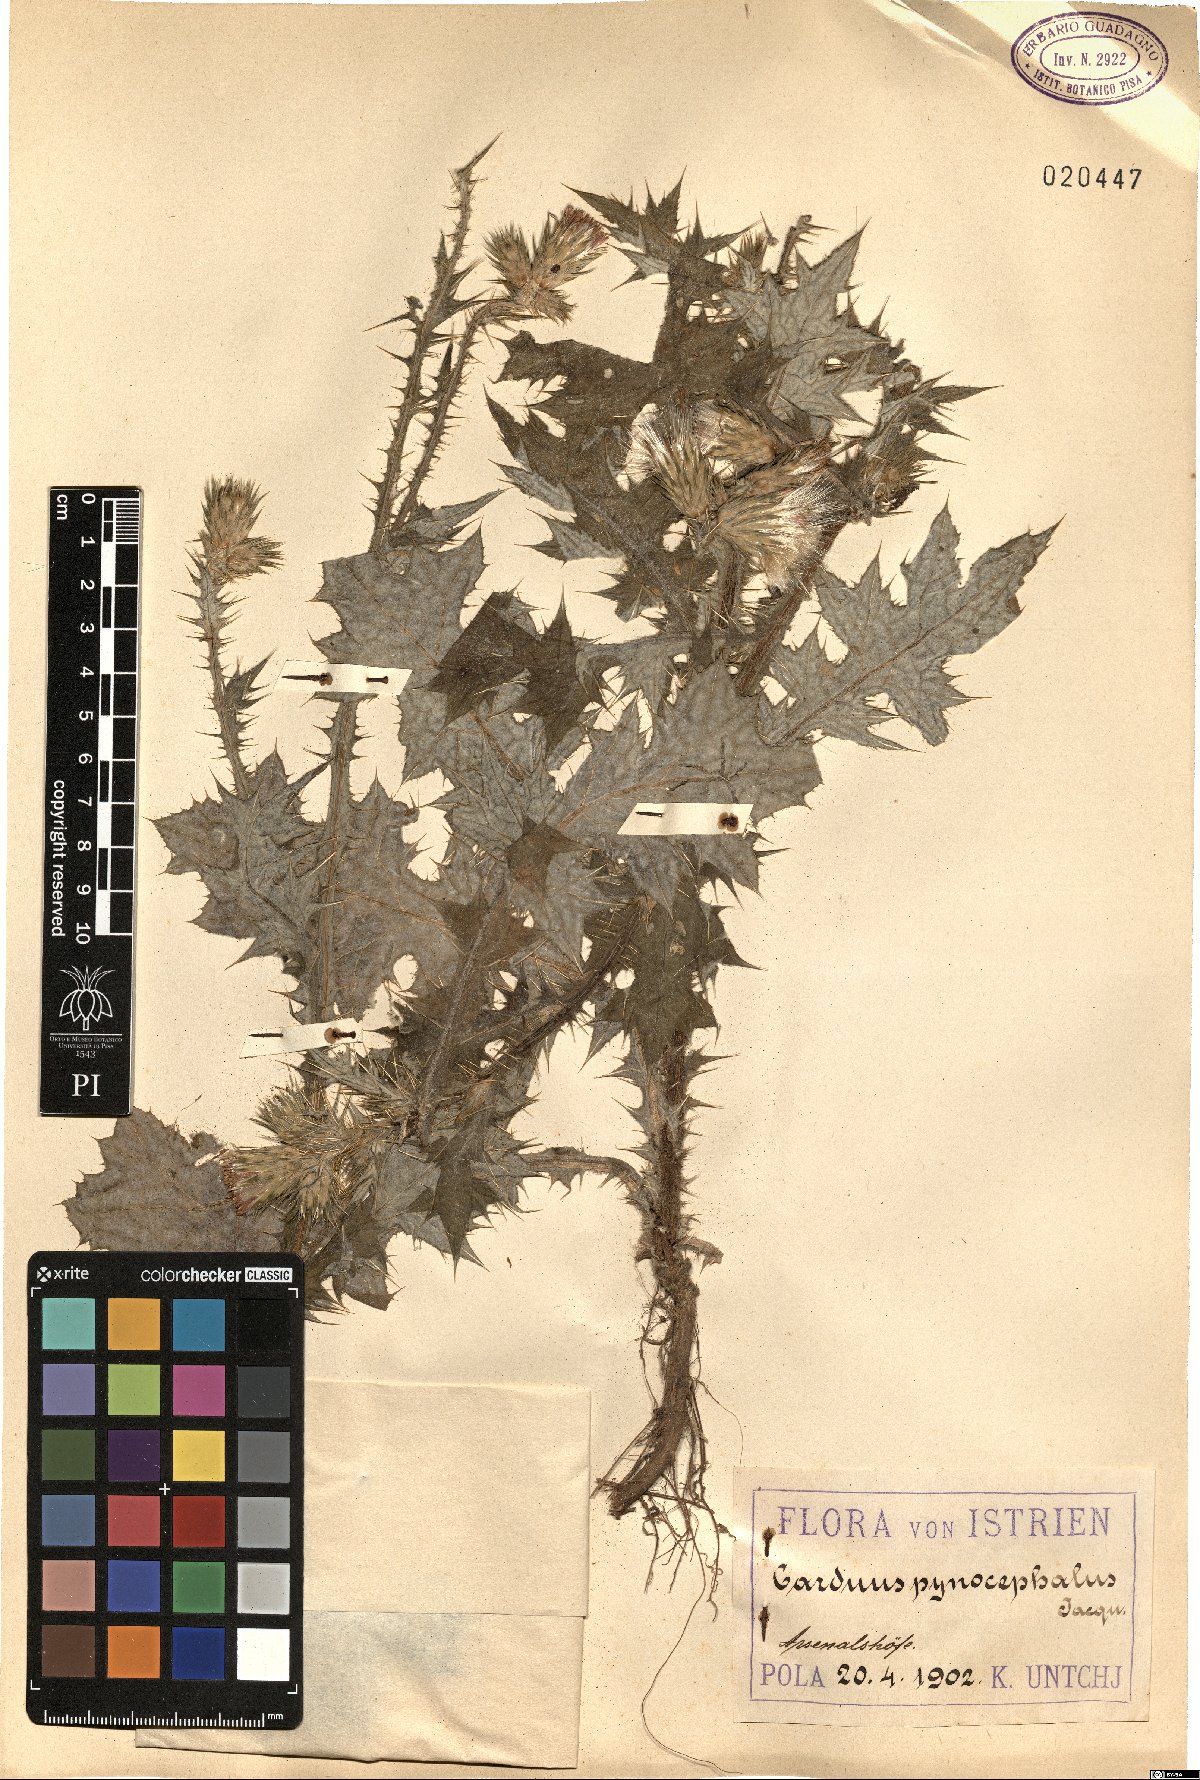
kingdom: Plantae
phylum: Tracheophyta
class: Magnoliopsida
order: Asterales
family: Asteraceae
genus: Carduus
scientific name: Carduus pycnocephalus
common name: Plymouth thistle
